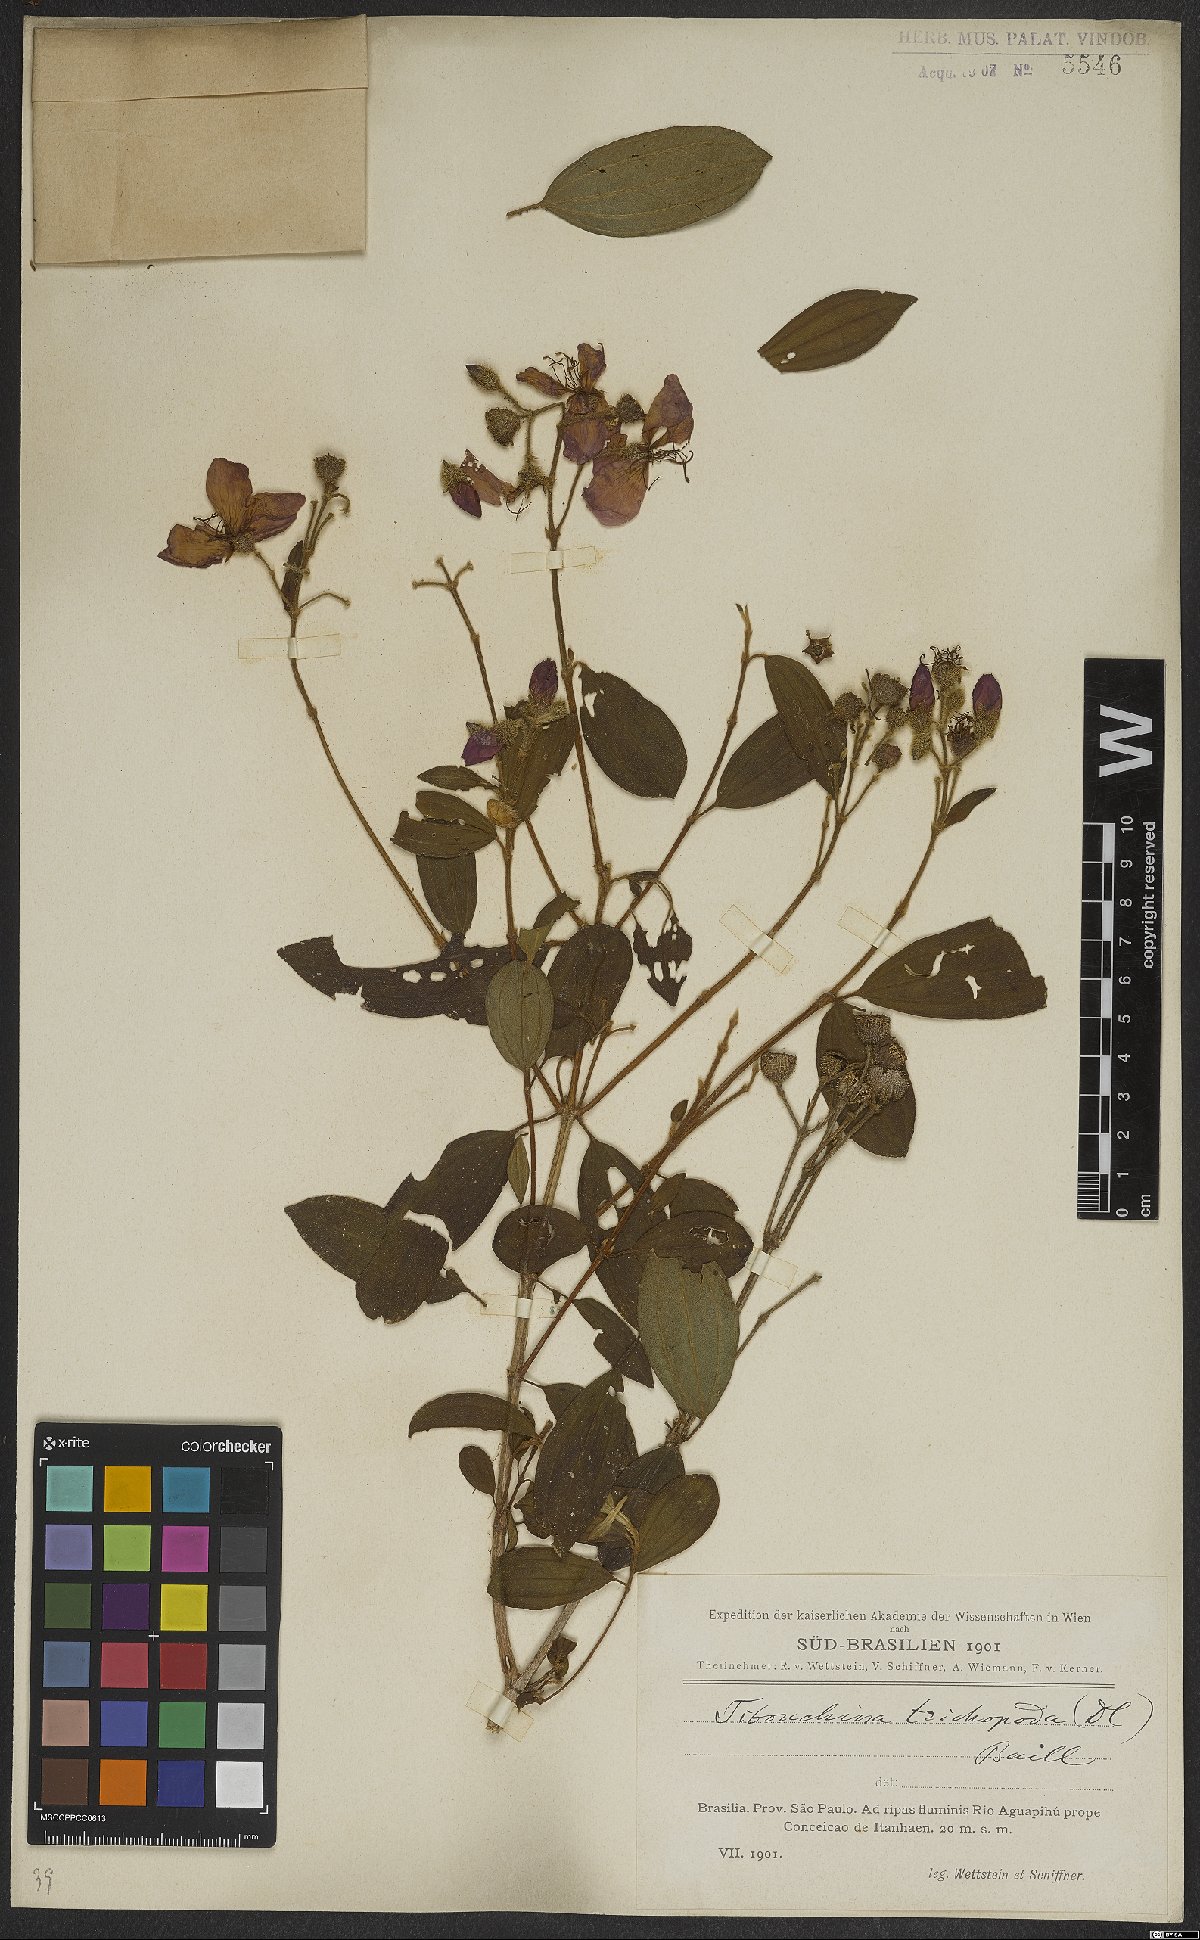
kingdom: Plantae
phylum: Tracheophyta
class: Magnoliopsida
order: Myrtales
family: Melastomataceae
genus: Pleroma
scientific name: Pleroma trichopodum
